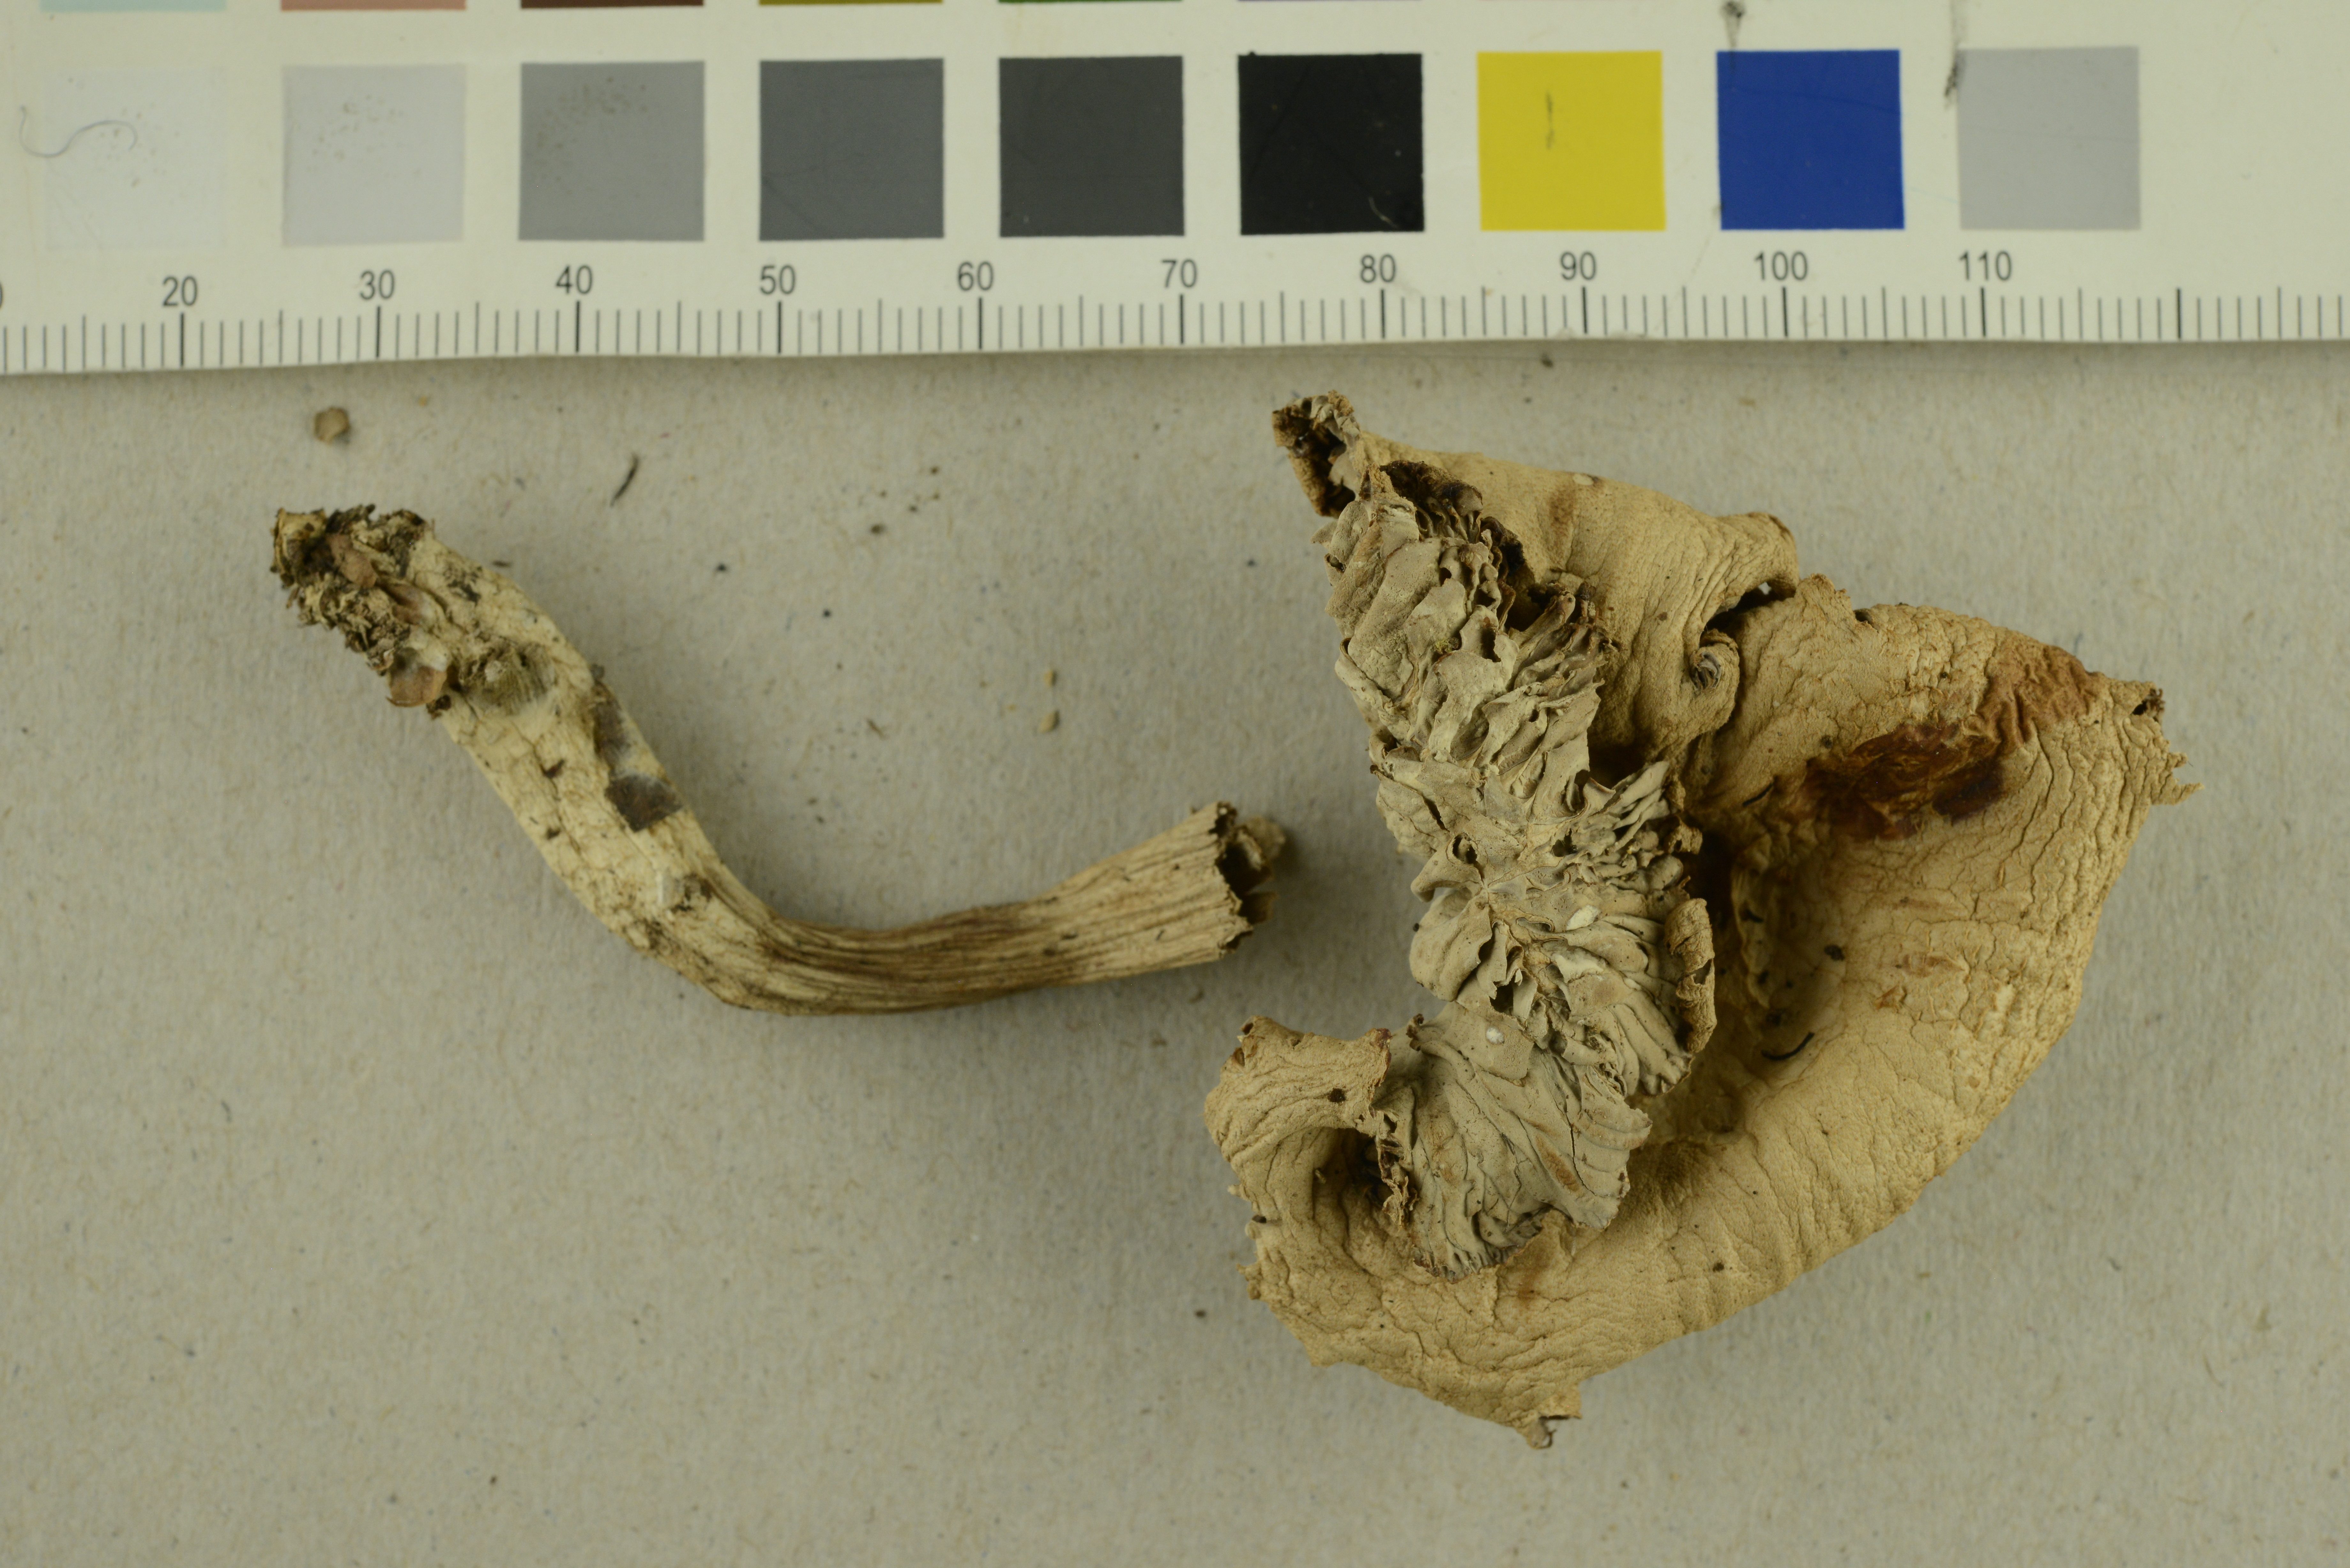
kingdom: Fungi
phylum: Basidiomycota
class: Agaricomycetes
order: Agaricales
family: Hydnangiaceae
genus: Laccaria
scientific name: Laccaria purpureobadia
